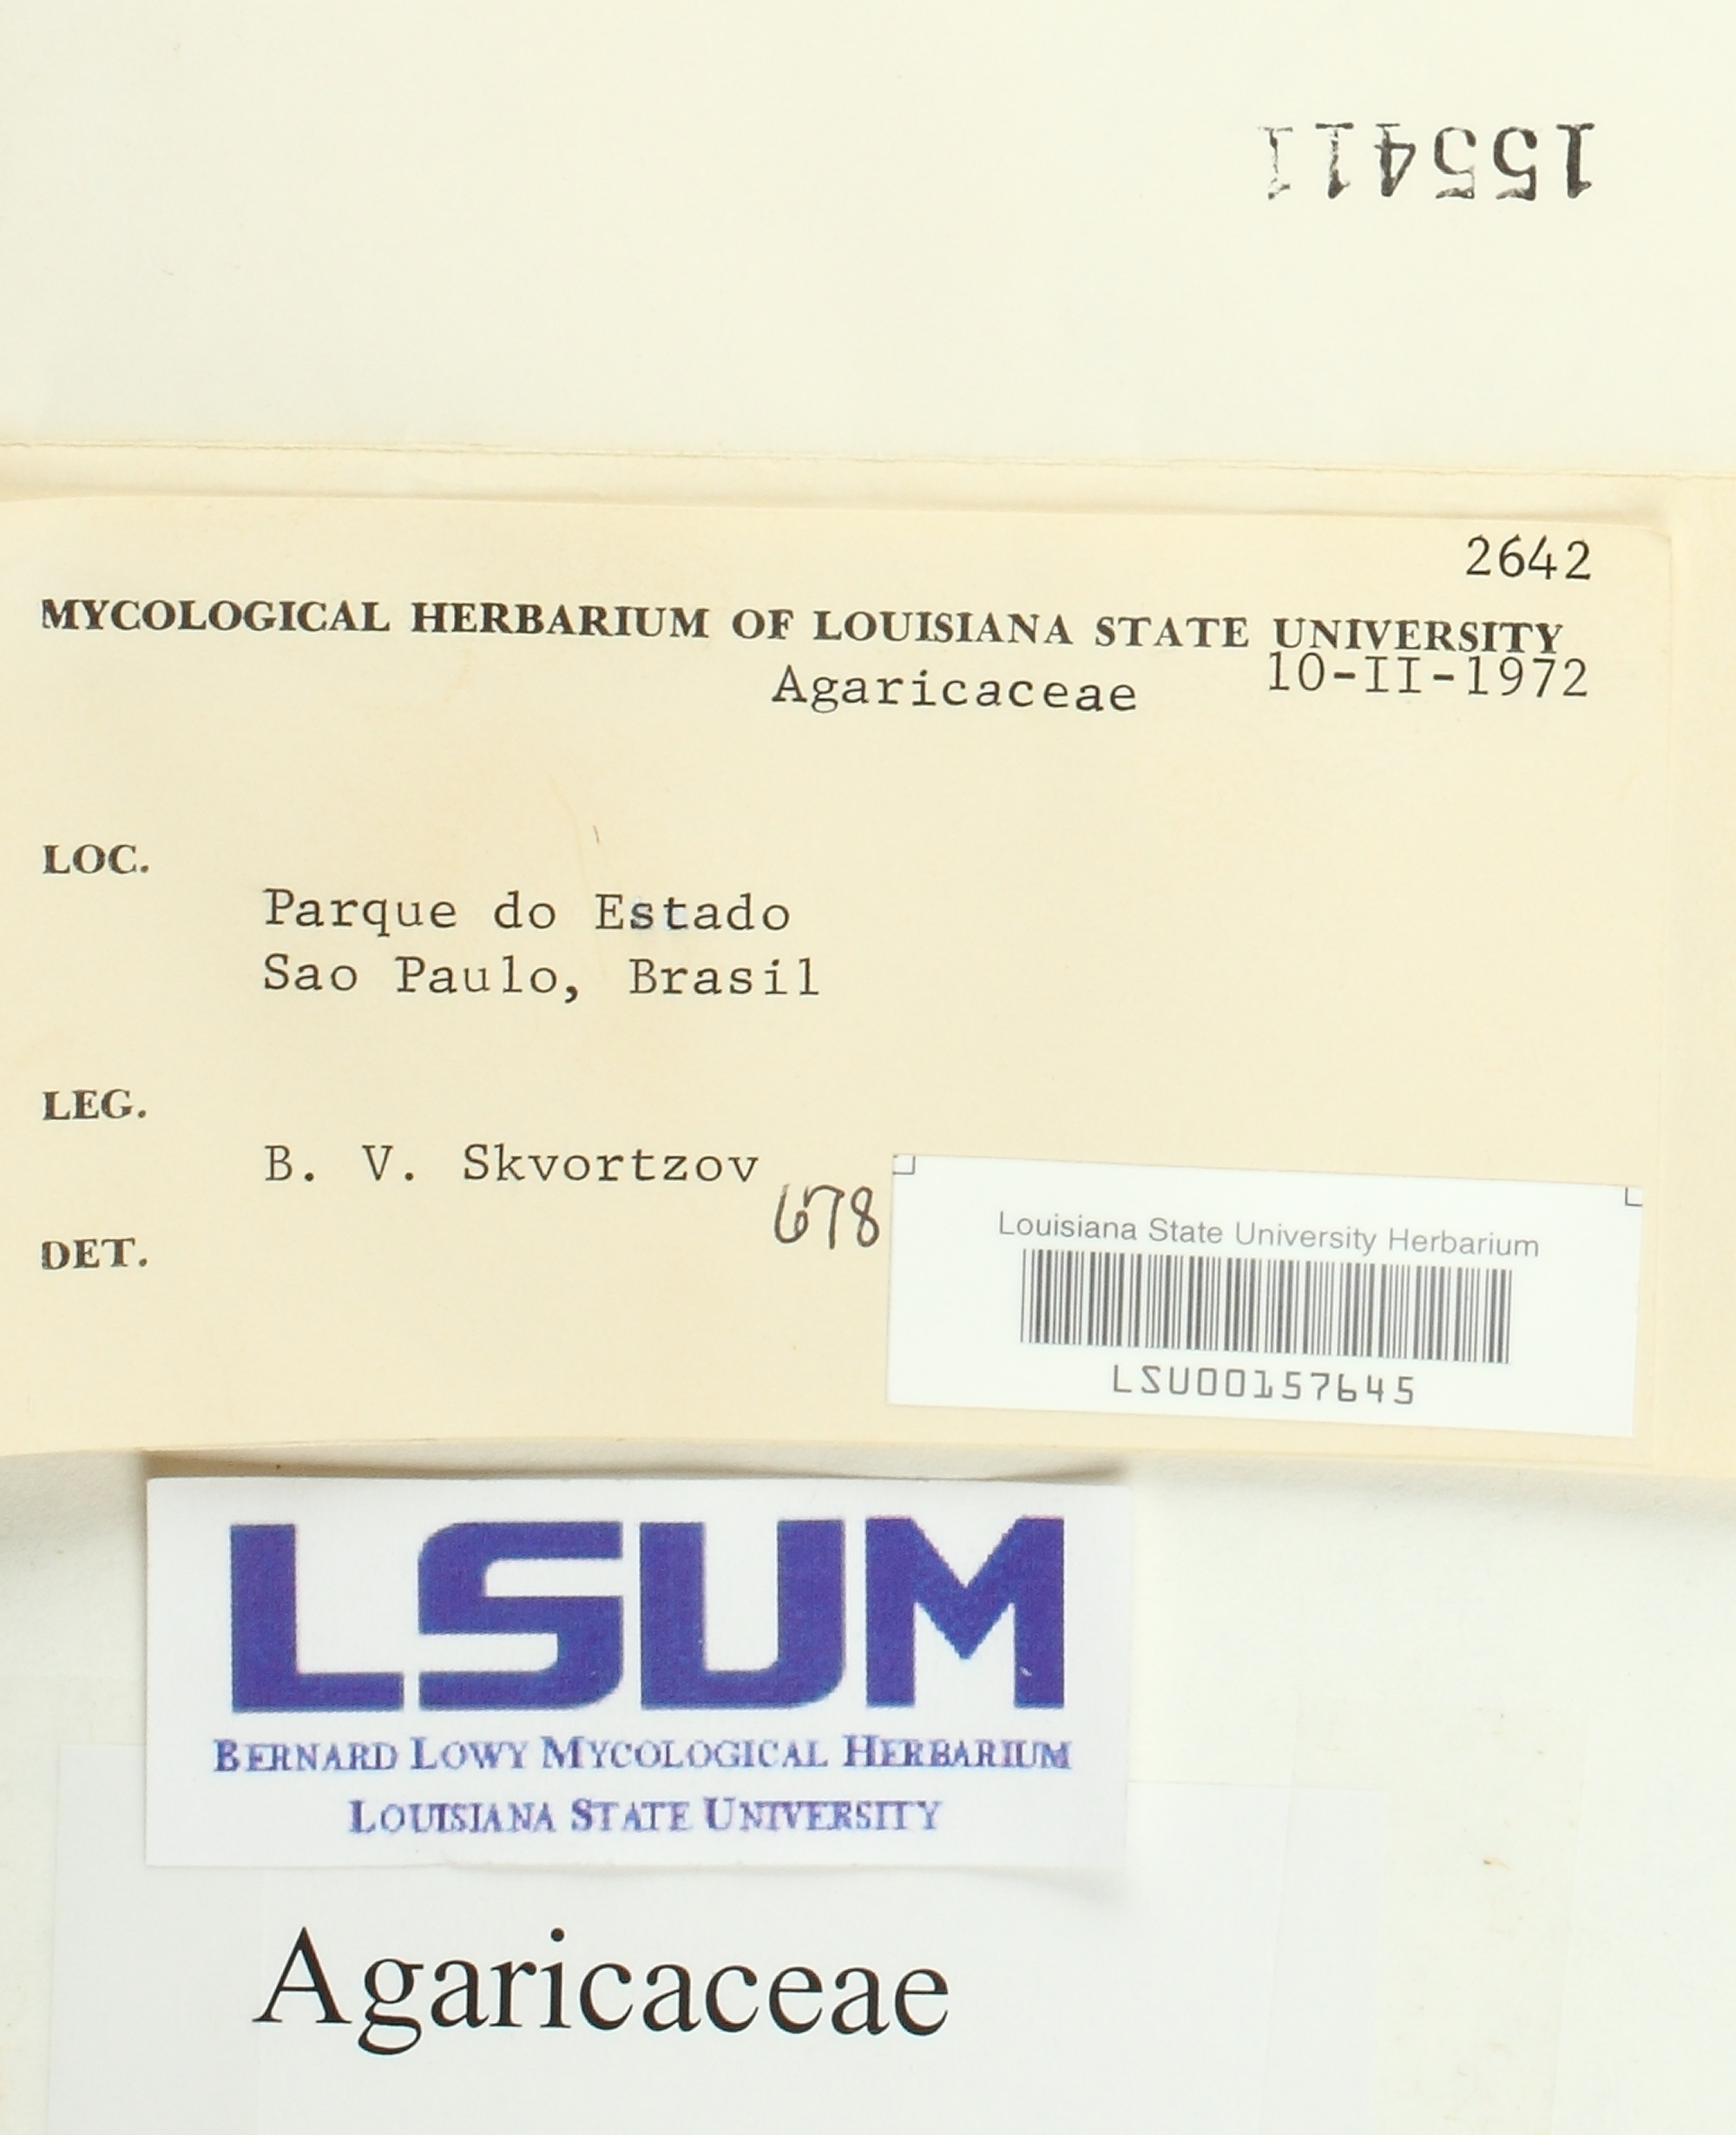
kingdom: Fungi
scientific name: Fungi
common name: Fungi
